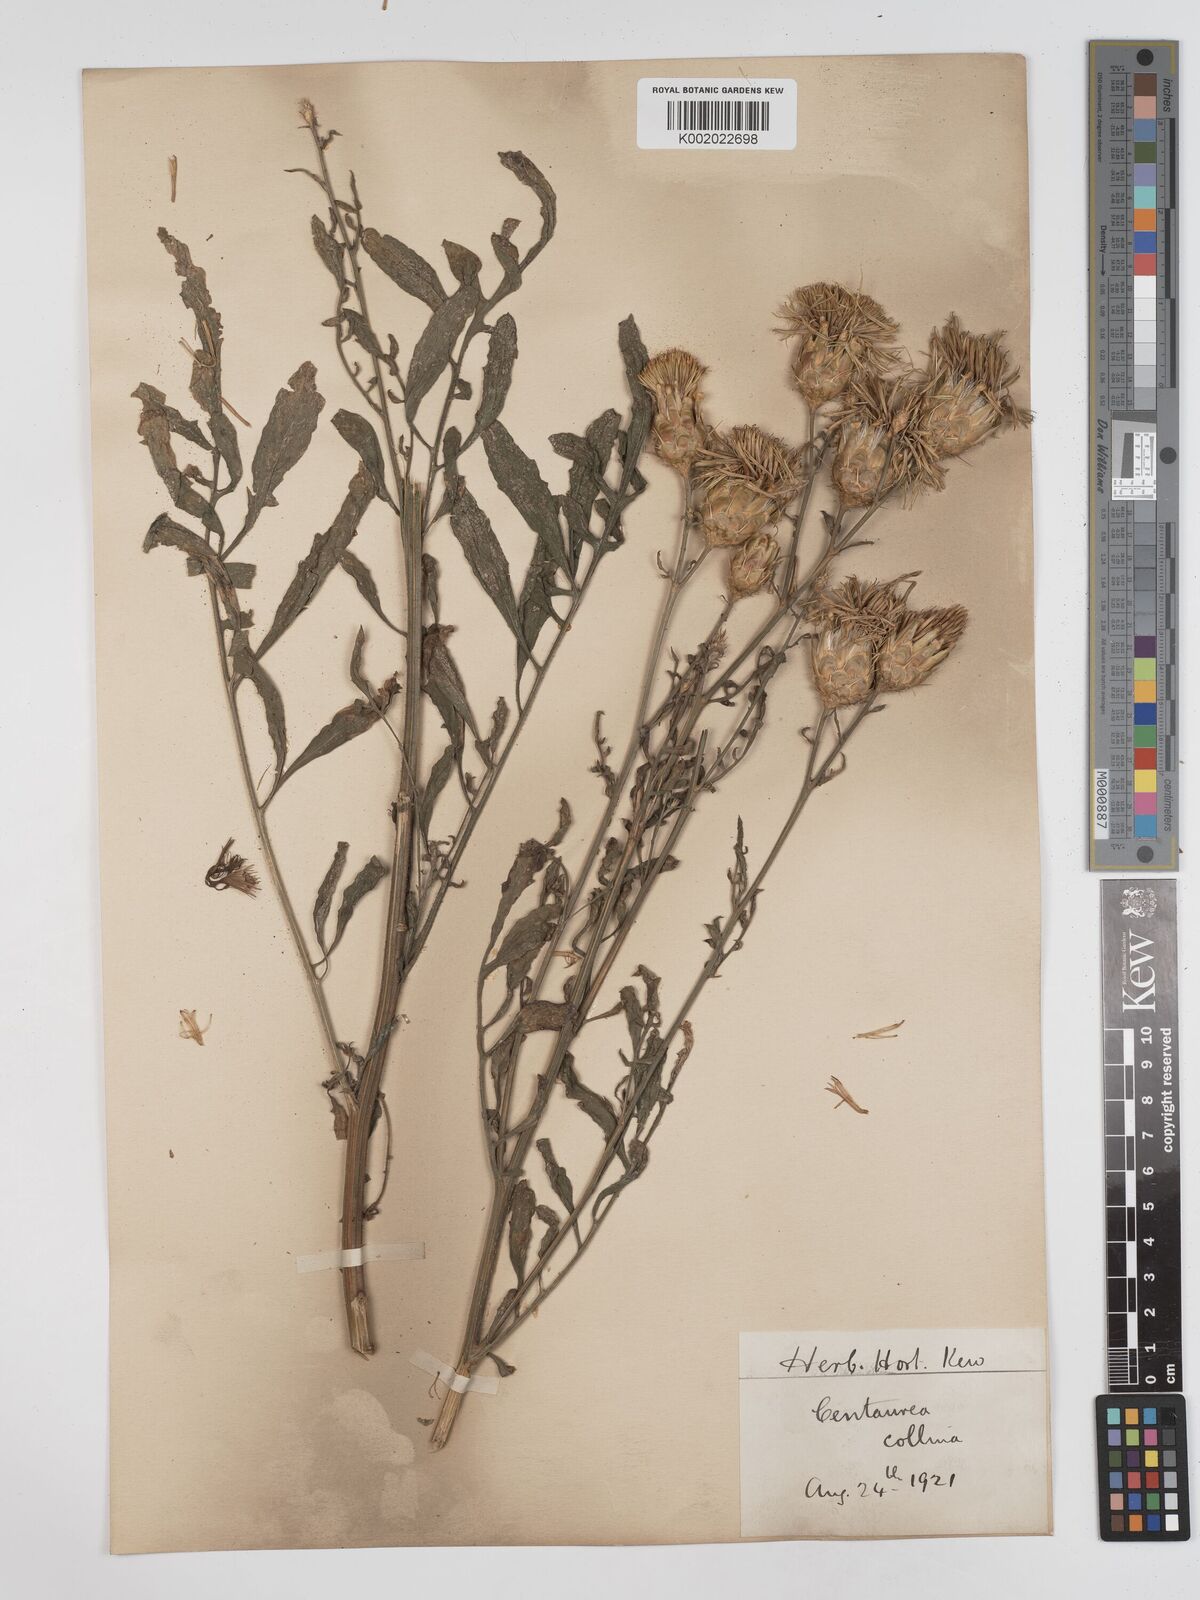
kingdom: Plantae
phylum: Tracheophyta
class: Magnoliopsida
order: Asterales
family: Asteraceae
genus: Centaurea
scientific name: Centaurea collina
